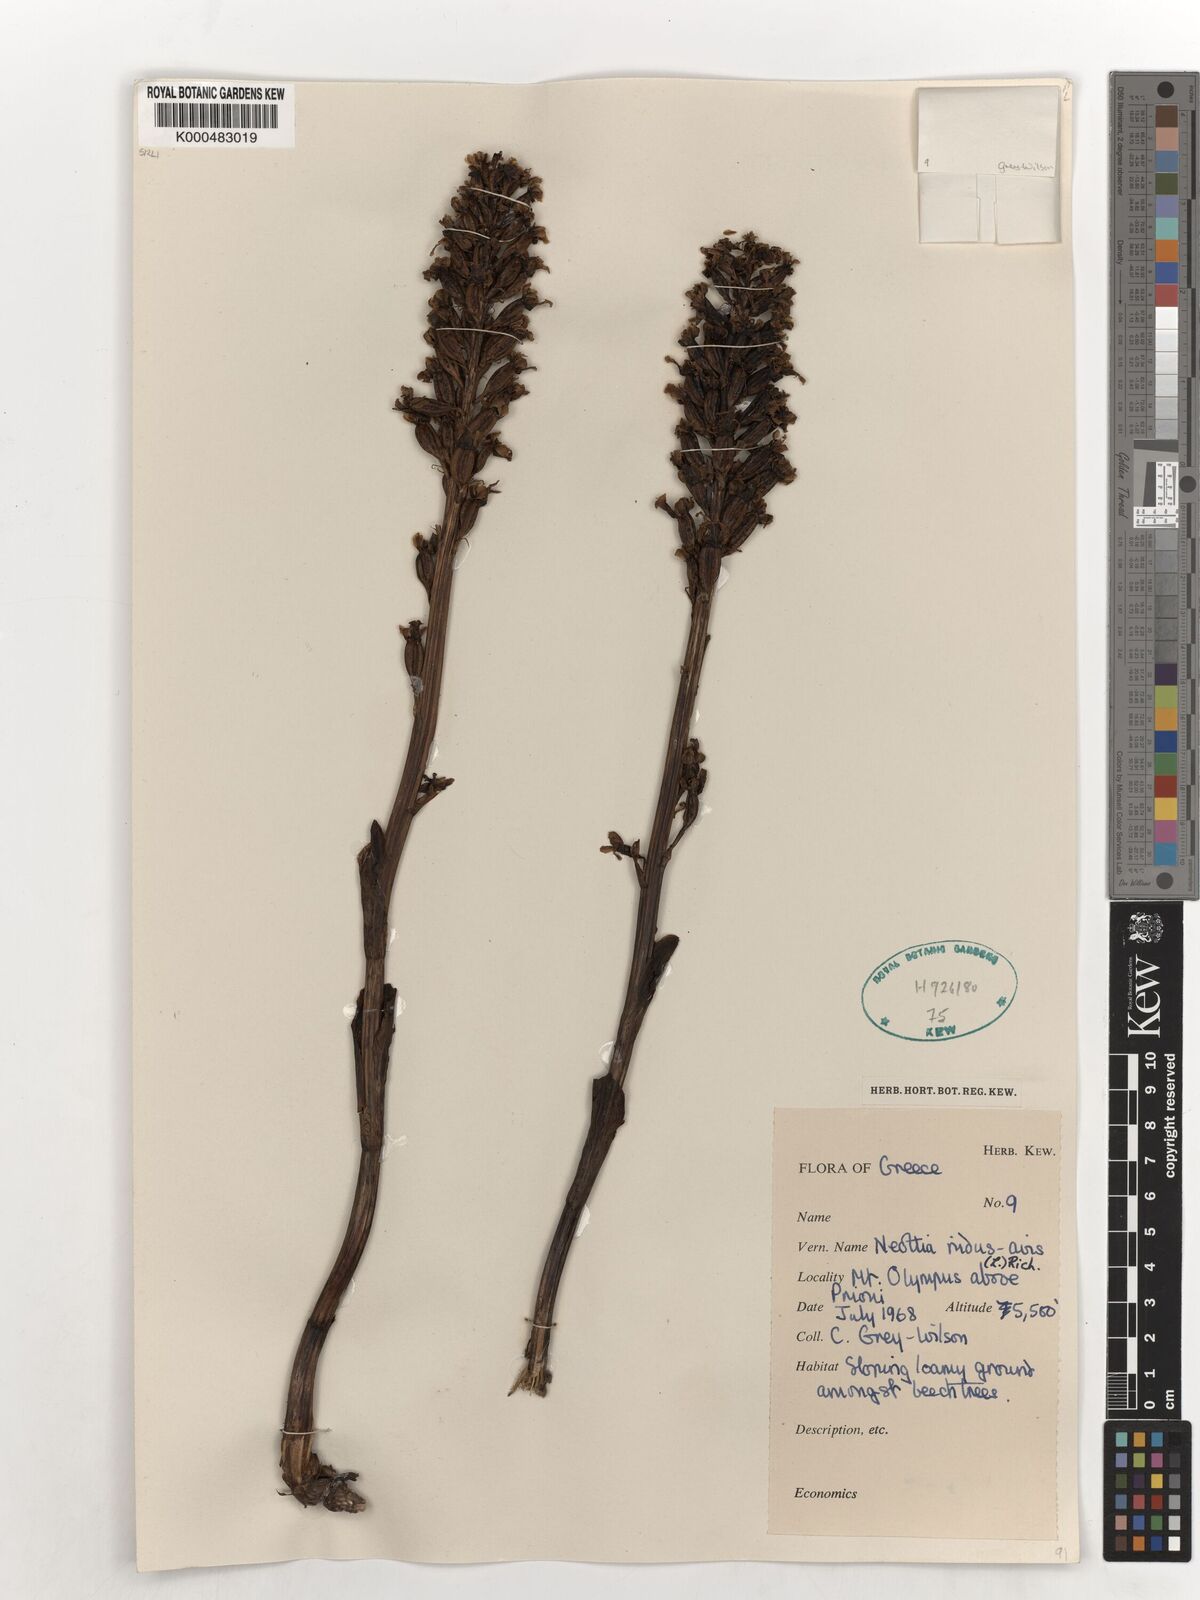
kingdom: Plantae
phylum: Tracheophyta
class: Liliopsida
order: Asparagales
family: Orchidaceae
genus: Neottia
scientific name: Neottia nidus-avis
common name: Bird's-nest orchid
